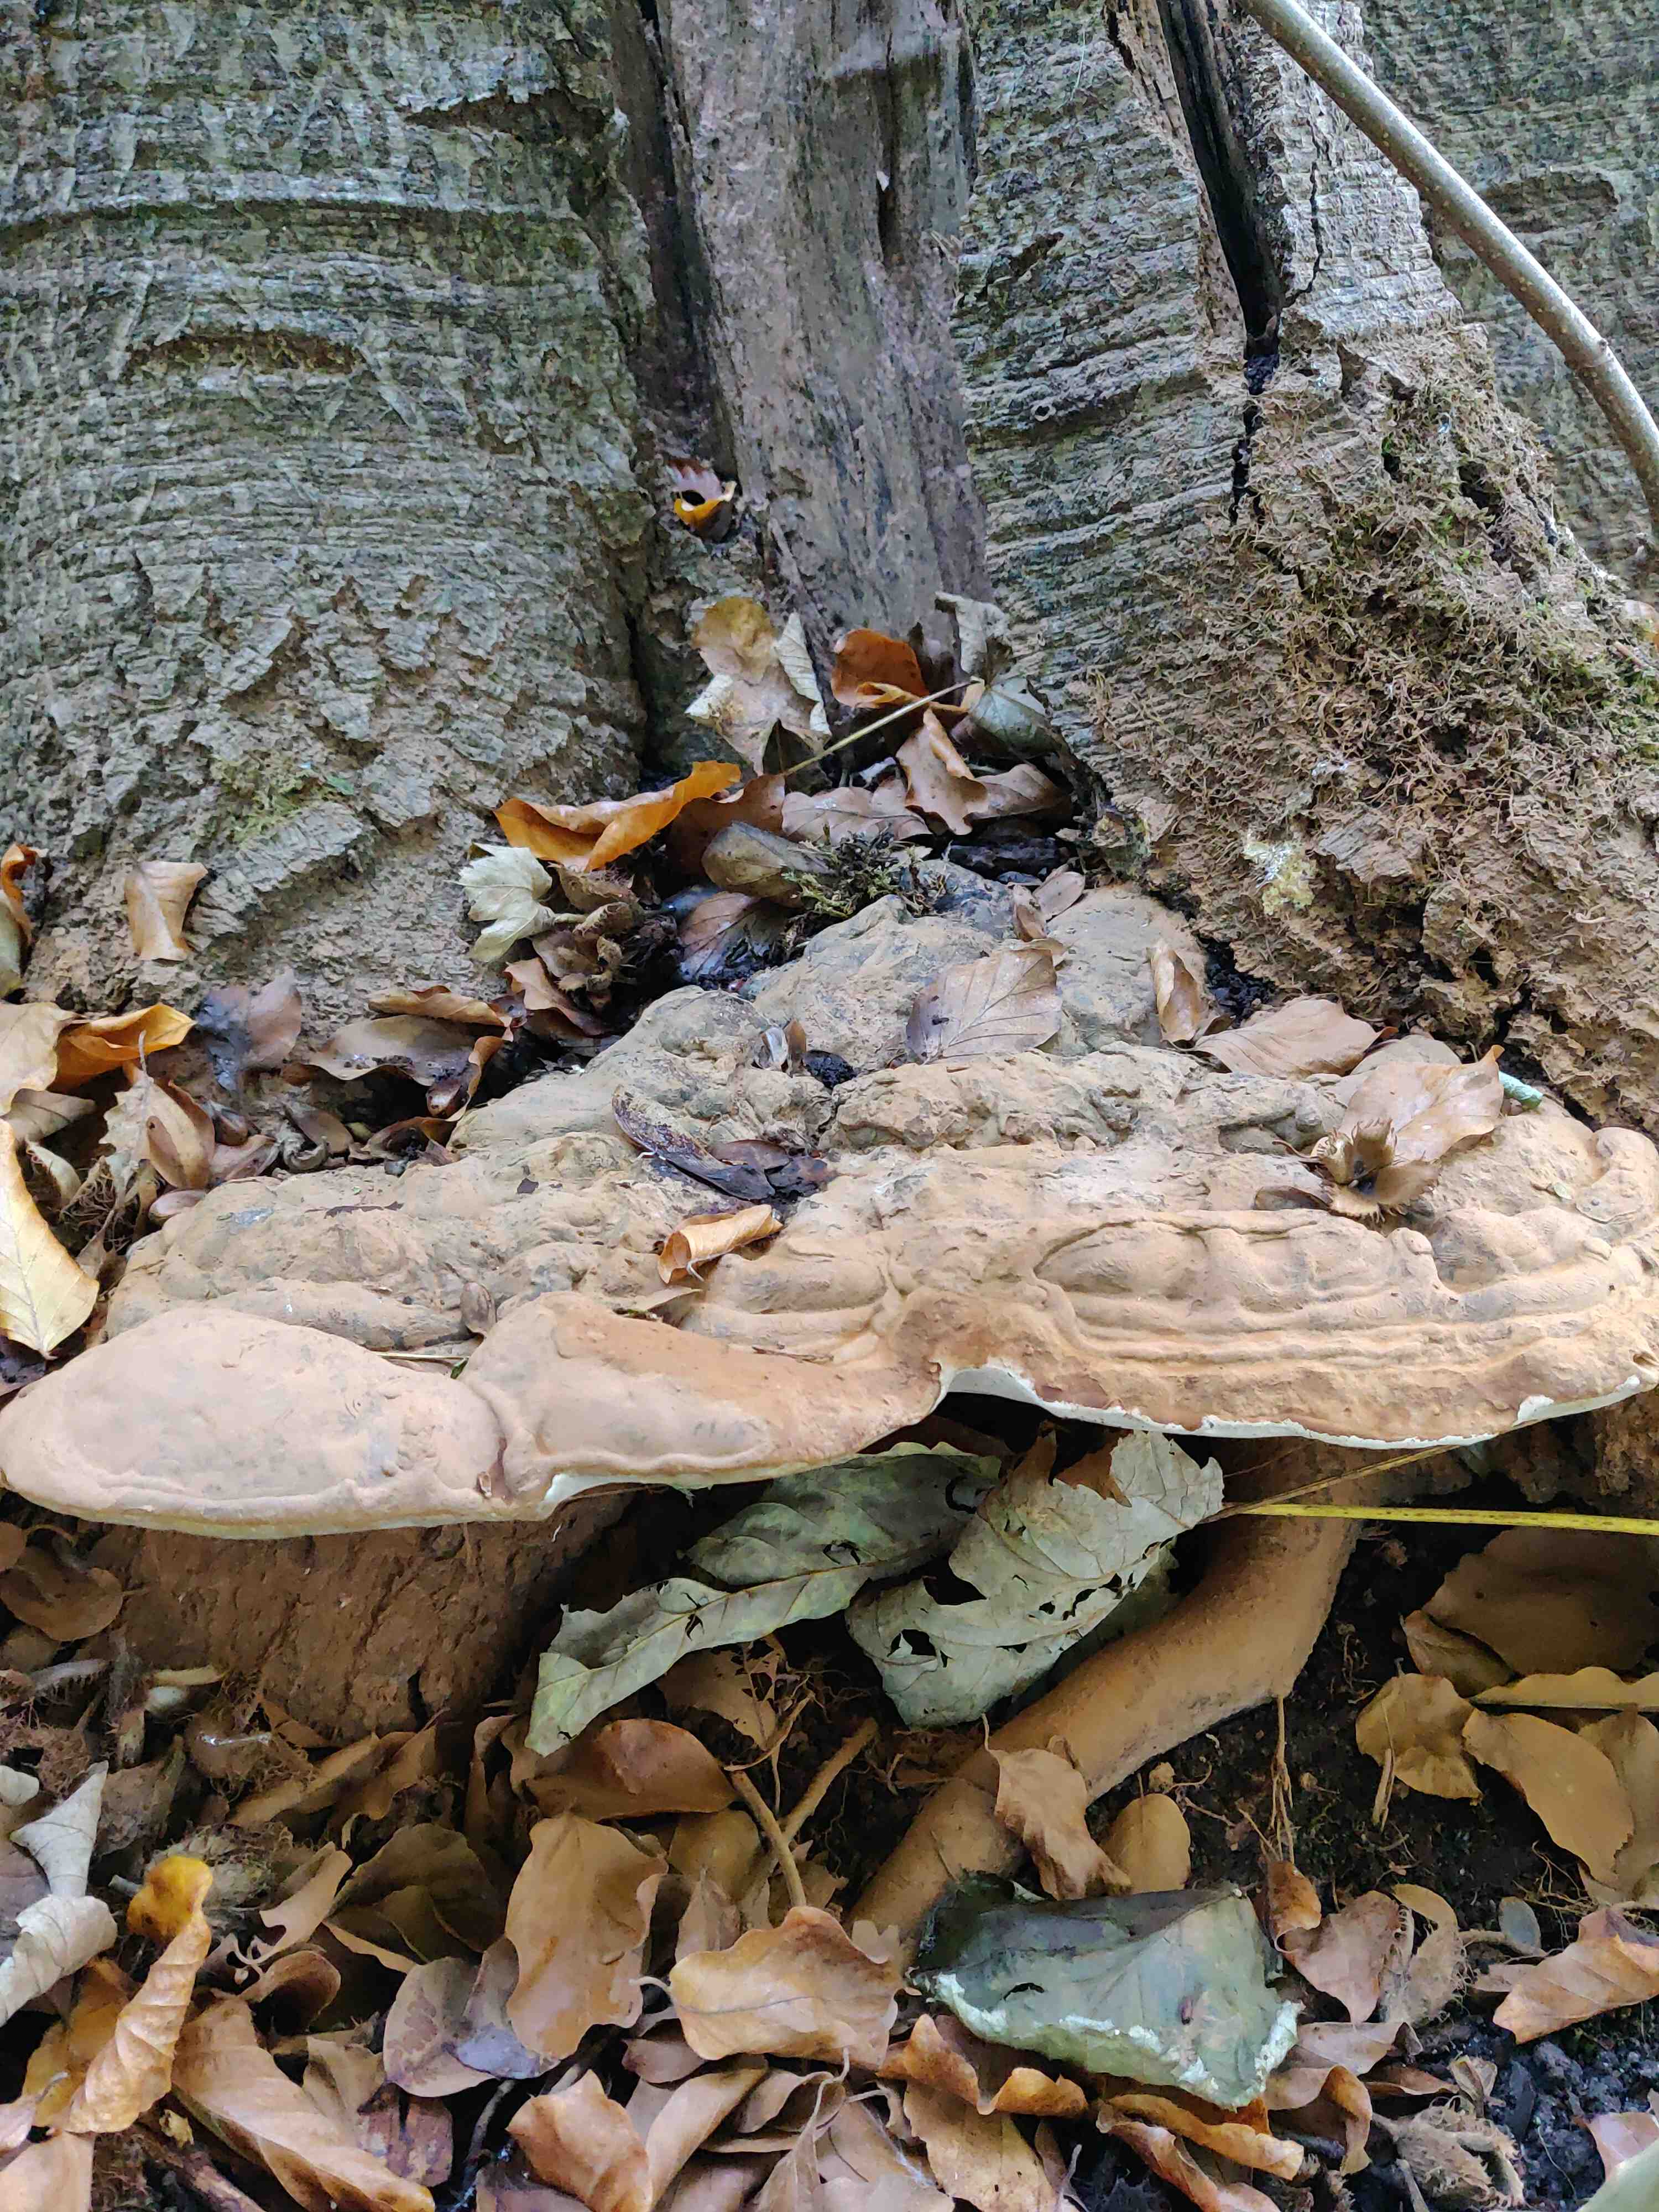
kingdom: Fungi
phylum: Basidiomycota
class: Agaricomycetes
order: Polyporales
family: Polyporaceae
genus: Ganoderma
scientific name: Ganoderma pfeifferi
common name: kobberrød lakporesvamp
